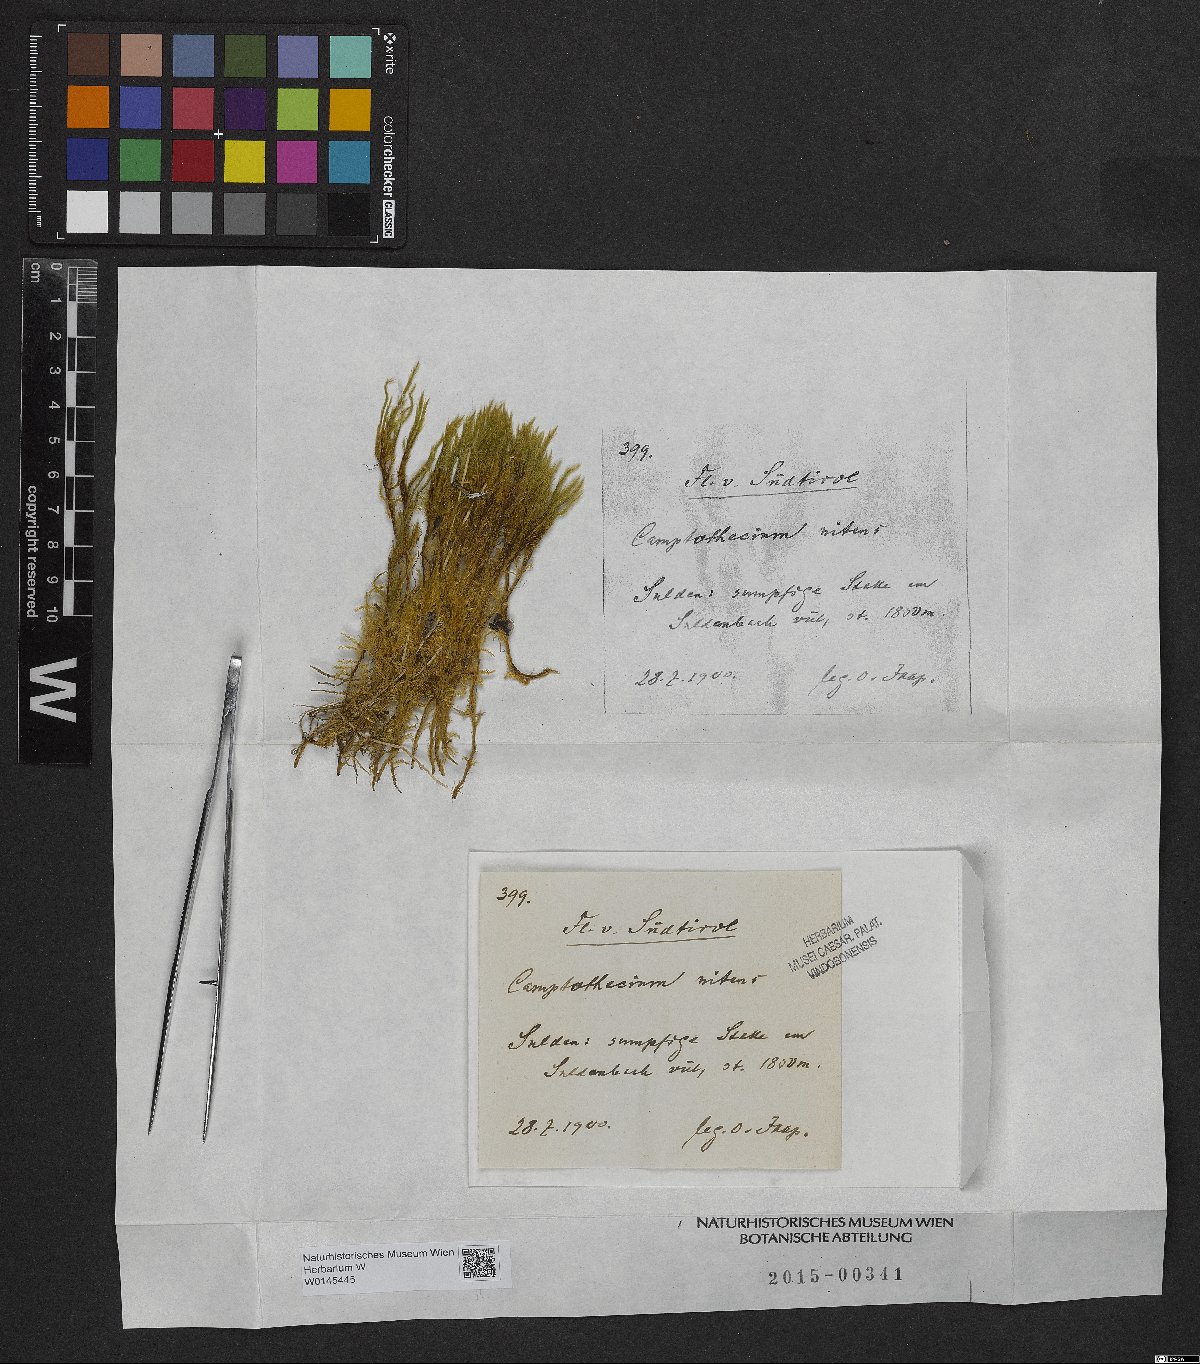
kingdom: Plantae
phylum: Bryophyta
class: Bryopsida
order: Hypnales
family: Brachytheciaceae
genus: Camptothecium
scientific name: Camptothecium
